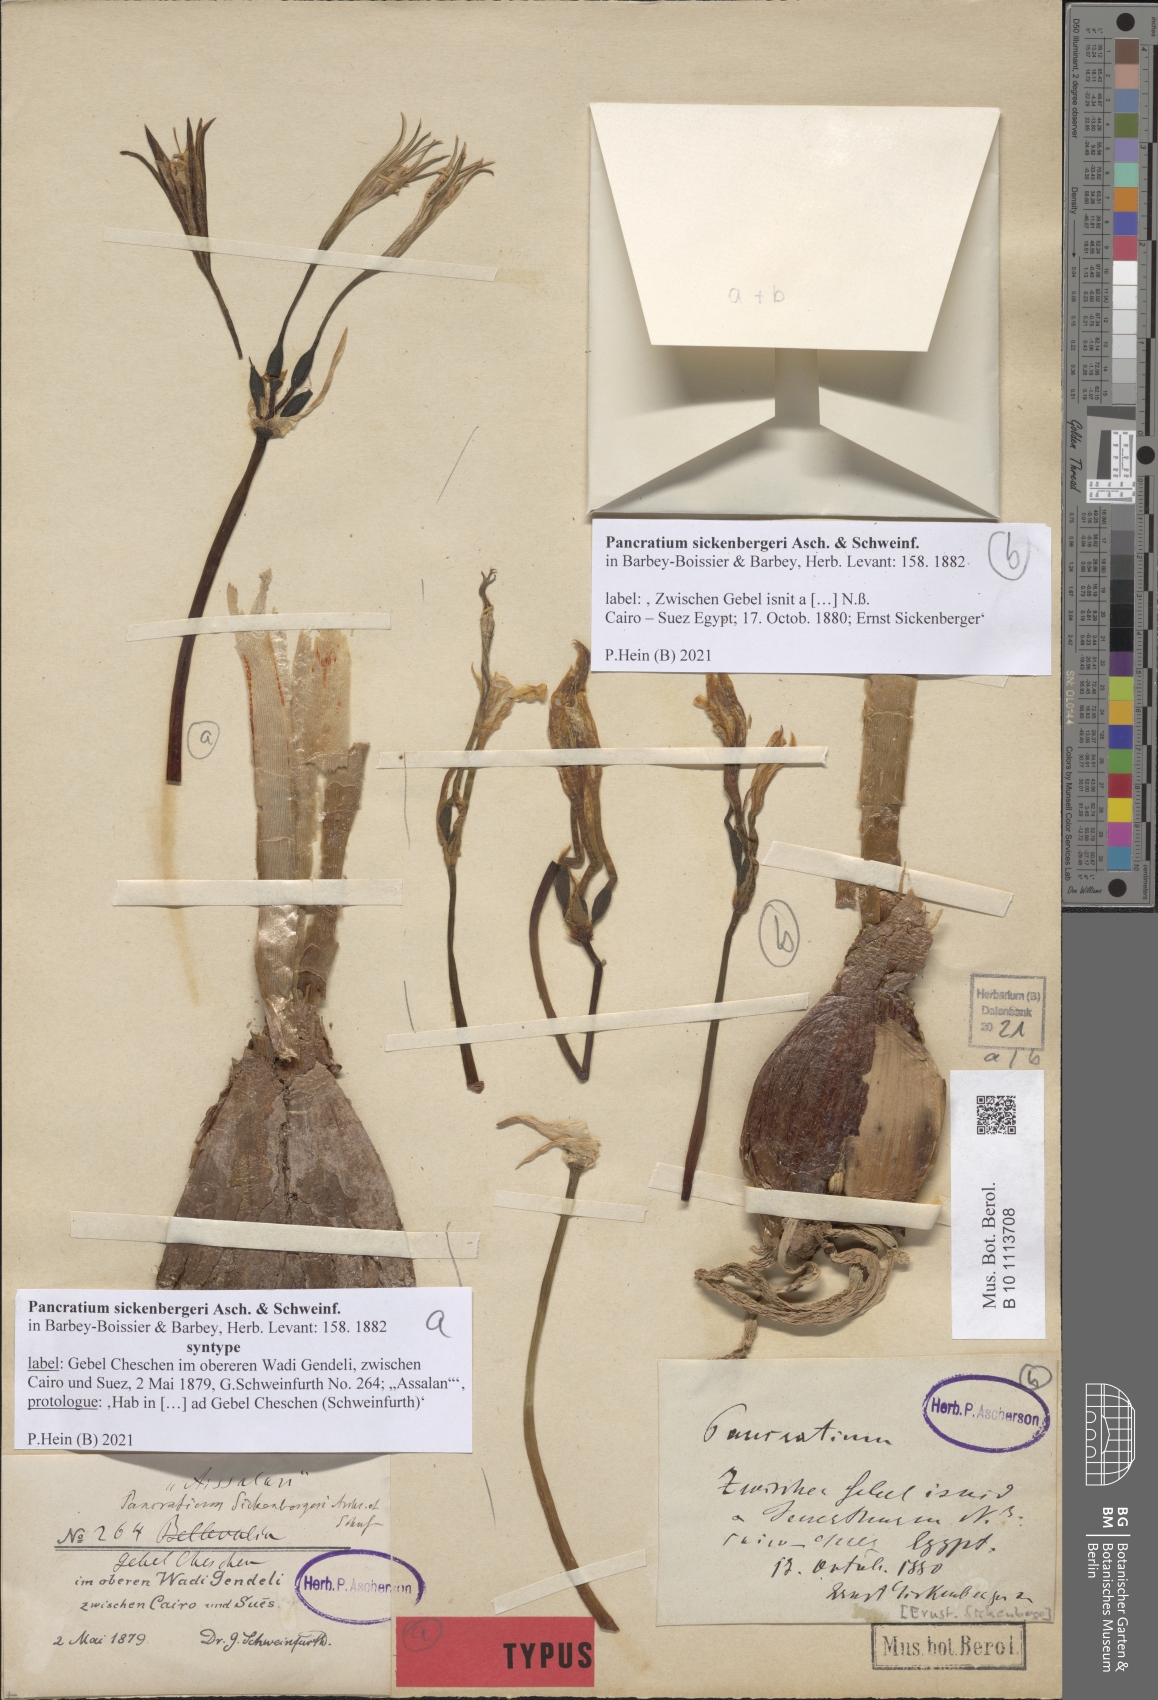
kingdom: Plantae
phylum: Tracheophyta
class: Liliopsida
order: Asparagales
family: Amaryllidaceae
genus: Pancratium
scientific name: Pancratium sickenbergeri
